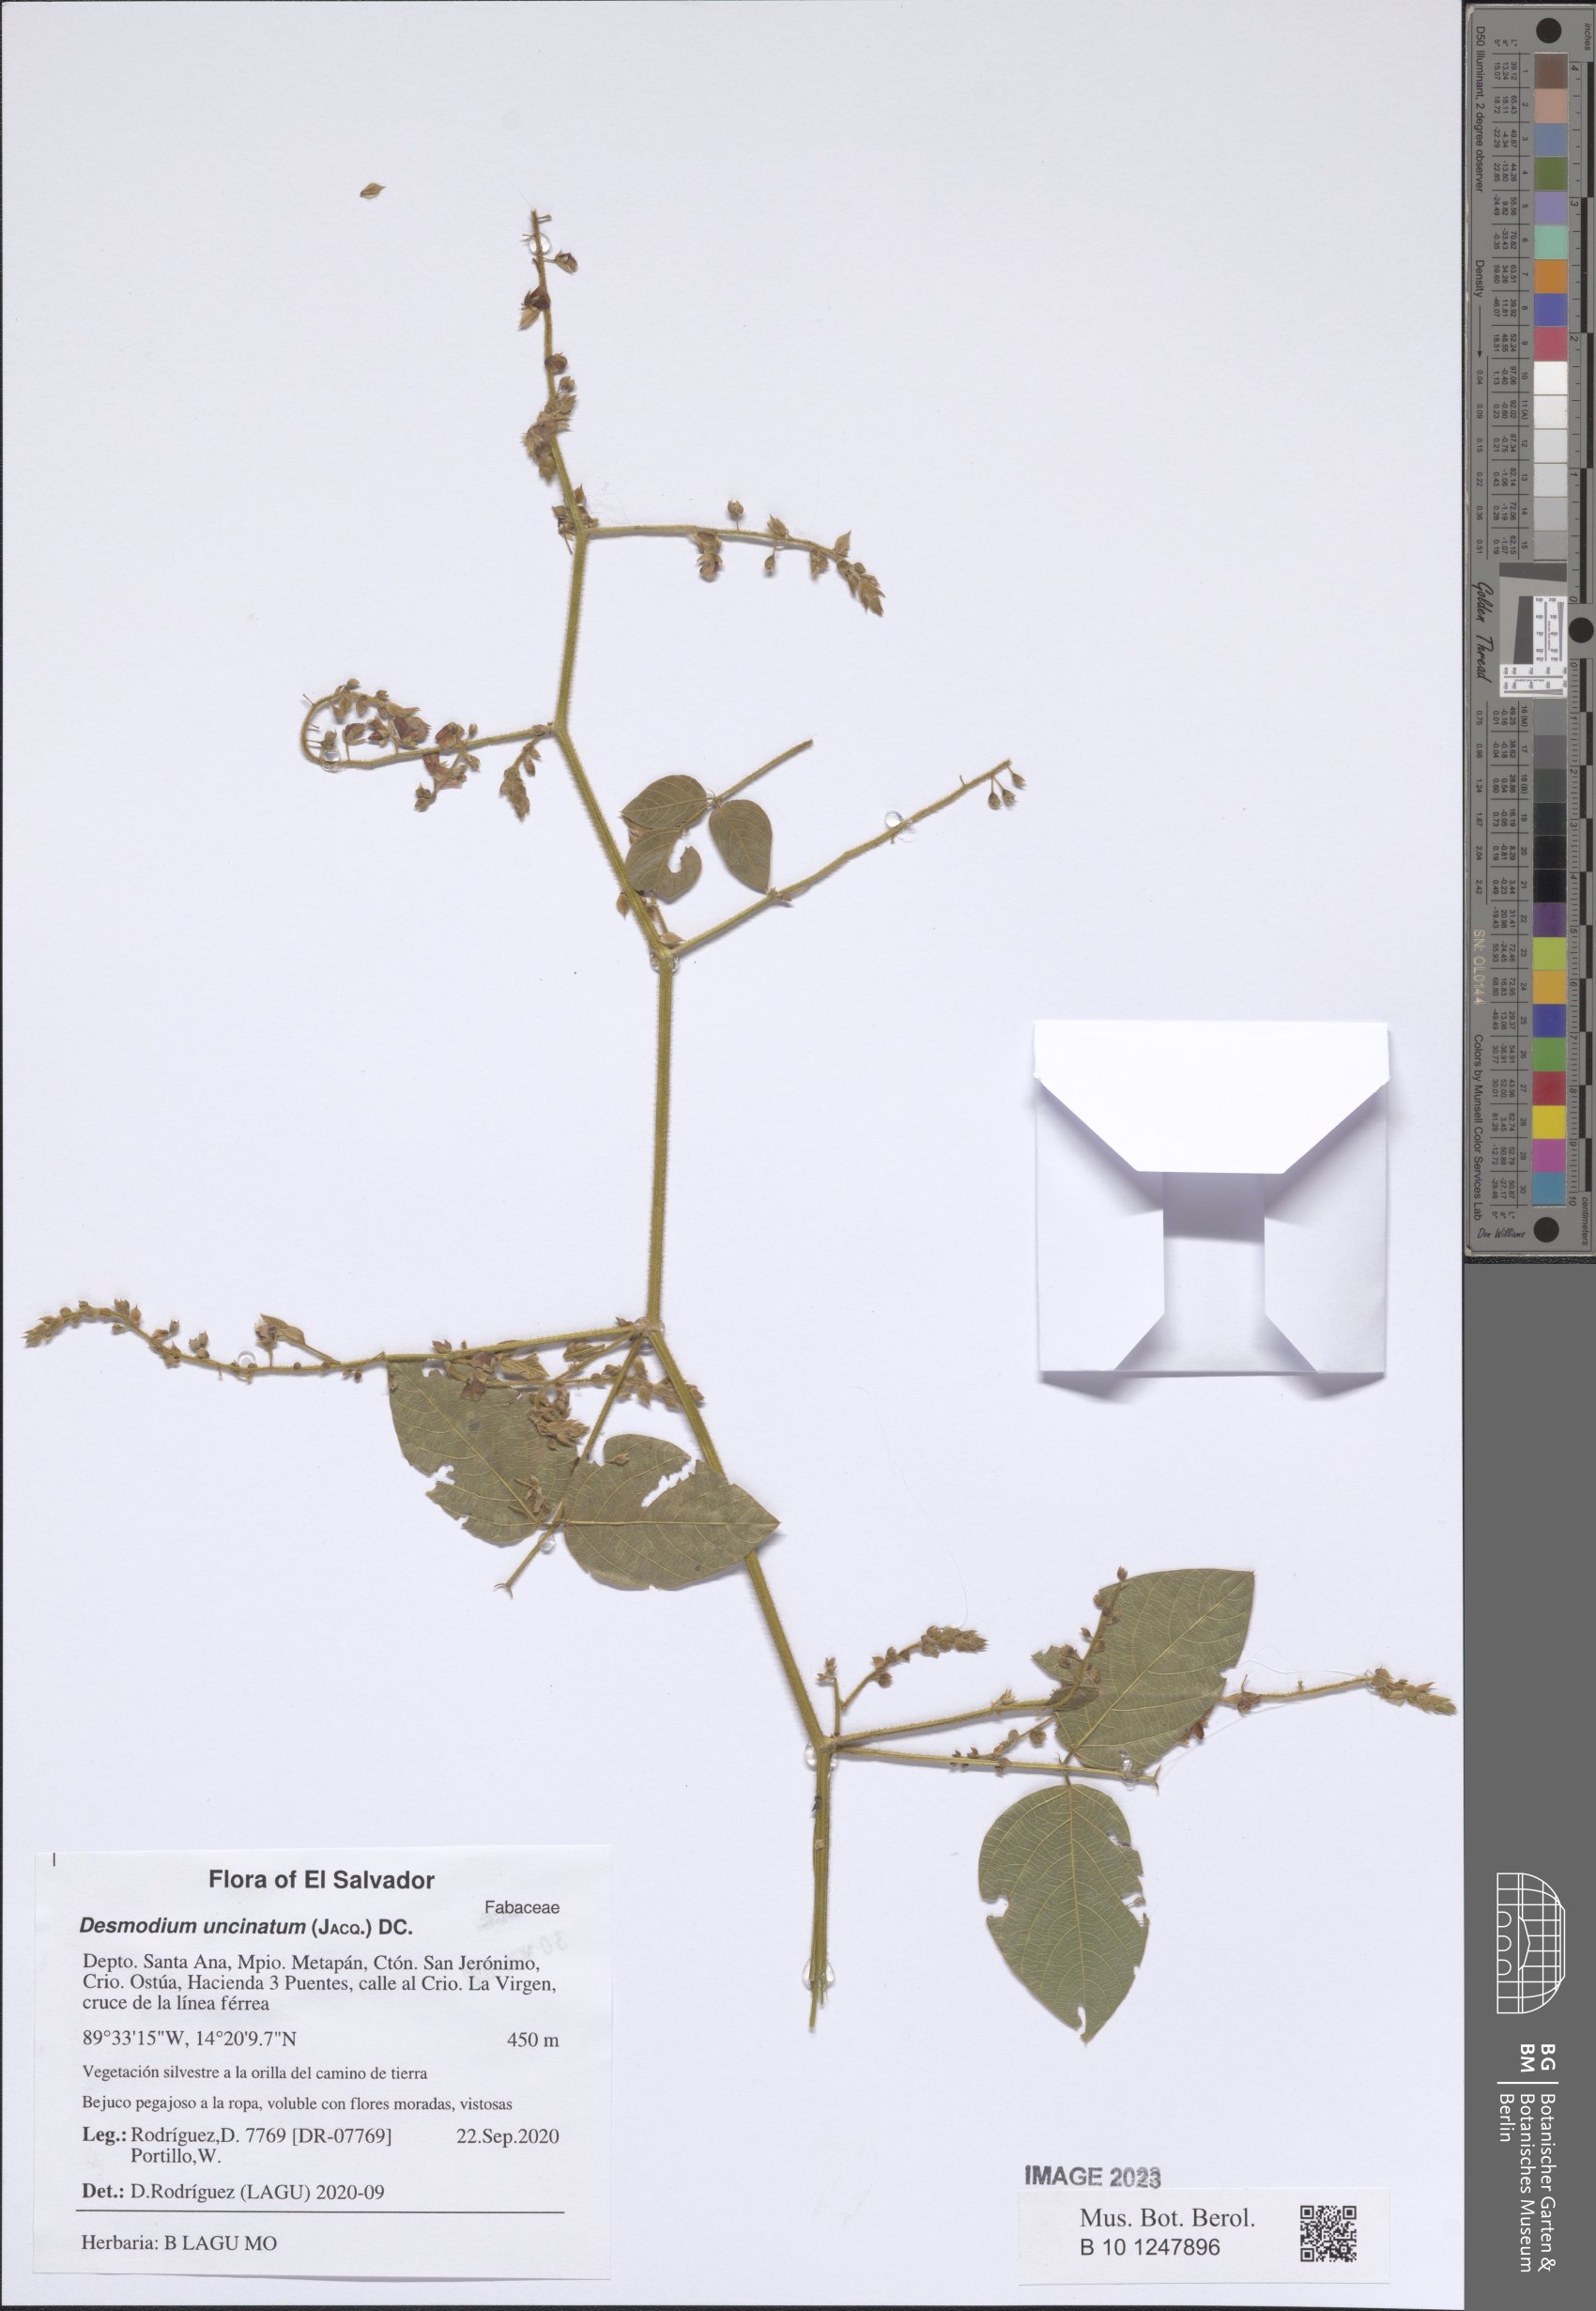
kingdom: Plantae
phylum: Tracheophyta
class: Magnoliopsida
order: Fabales
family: Fabaceae
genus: Desmodium
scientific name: Desmodium uncinatum
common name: Silverleaf desmodium
